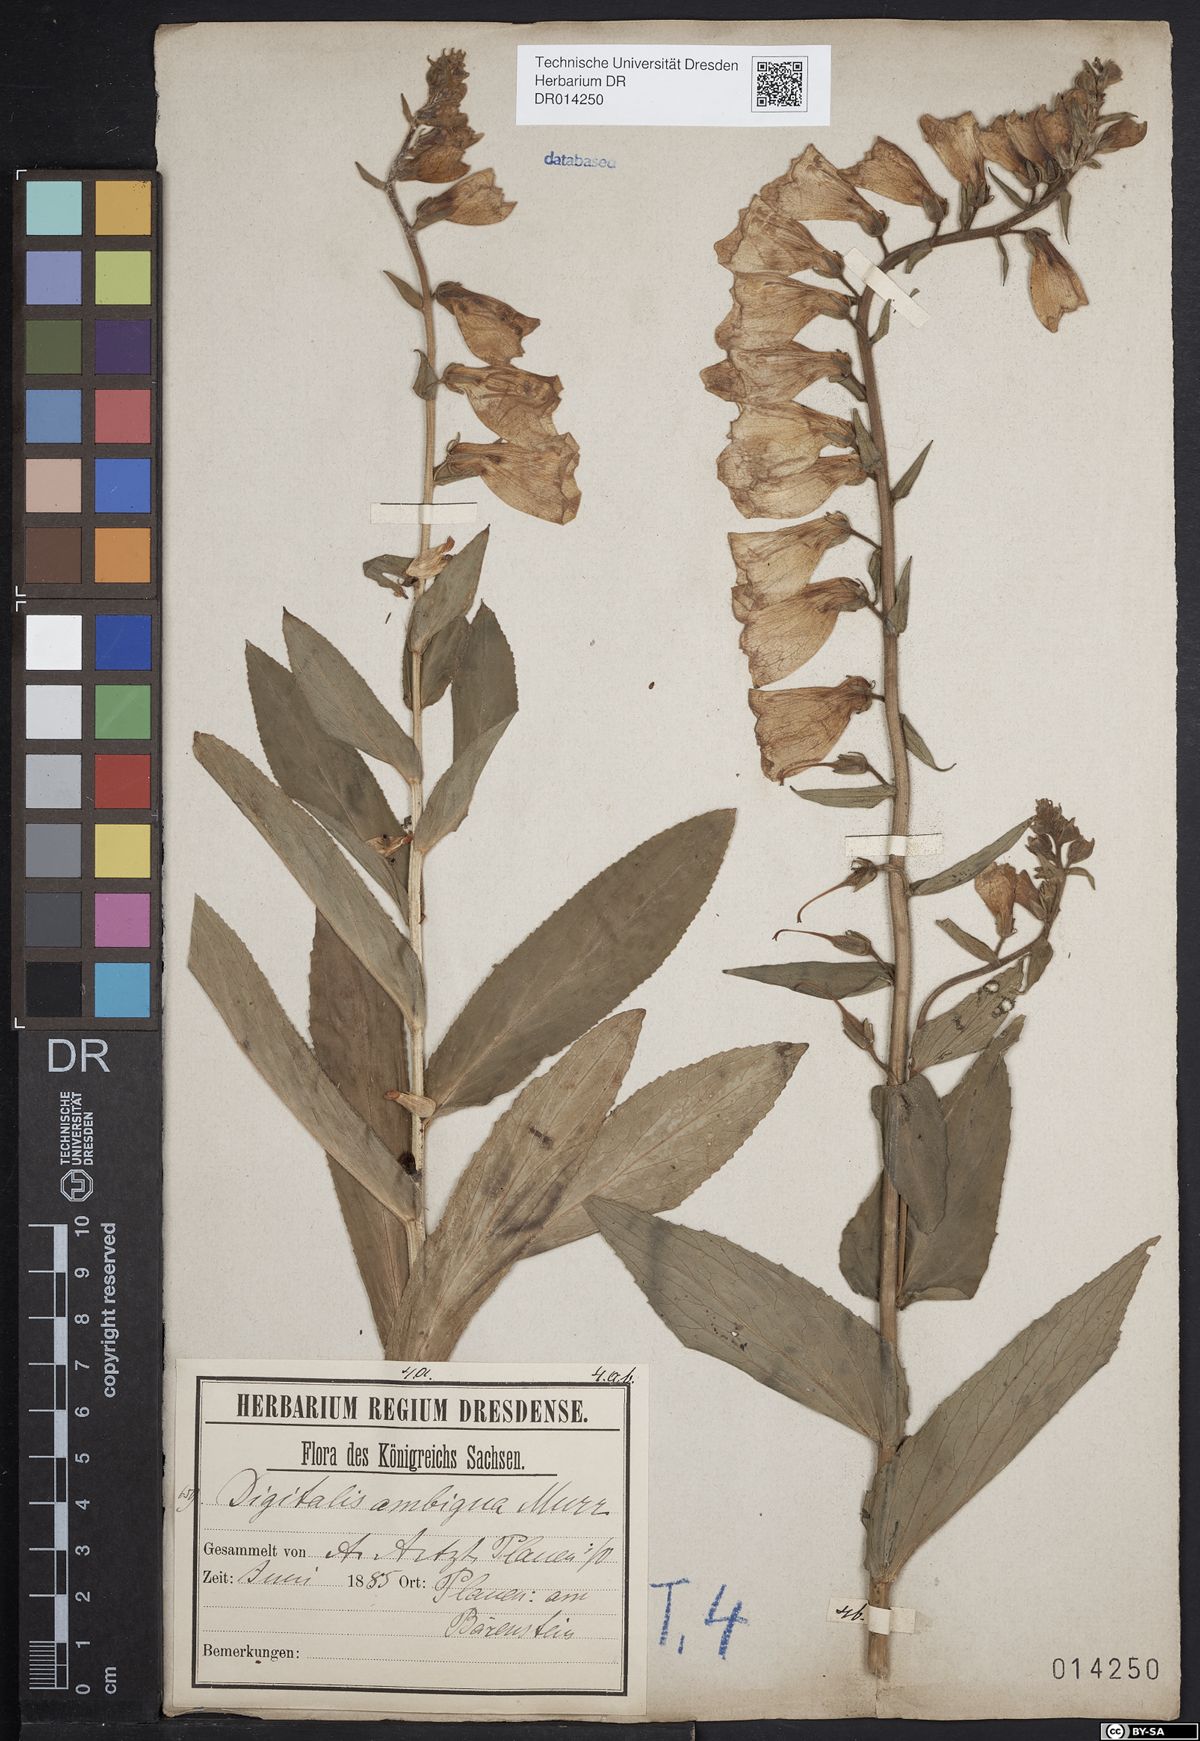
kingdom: Plantae
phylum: Tracheophyta
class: Magnoliopsida
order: Lamiales
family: Plantaginaceae
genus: Digitalis
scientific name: Digitalis grandiflora
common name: Yellow foxglove
